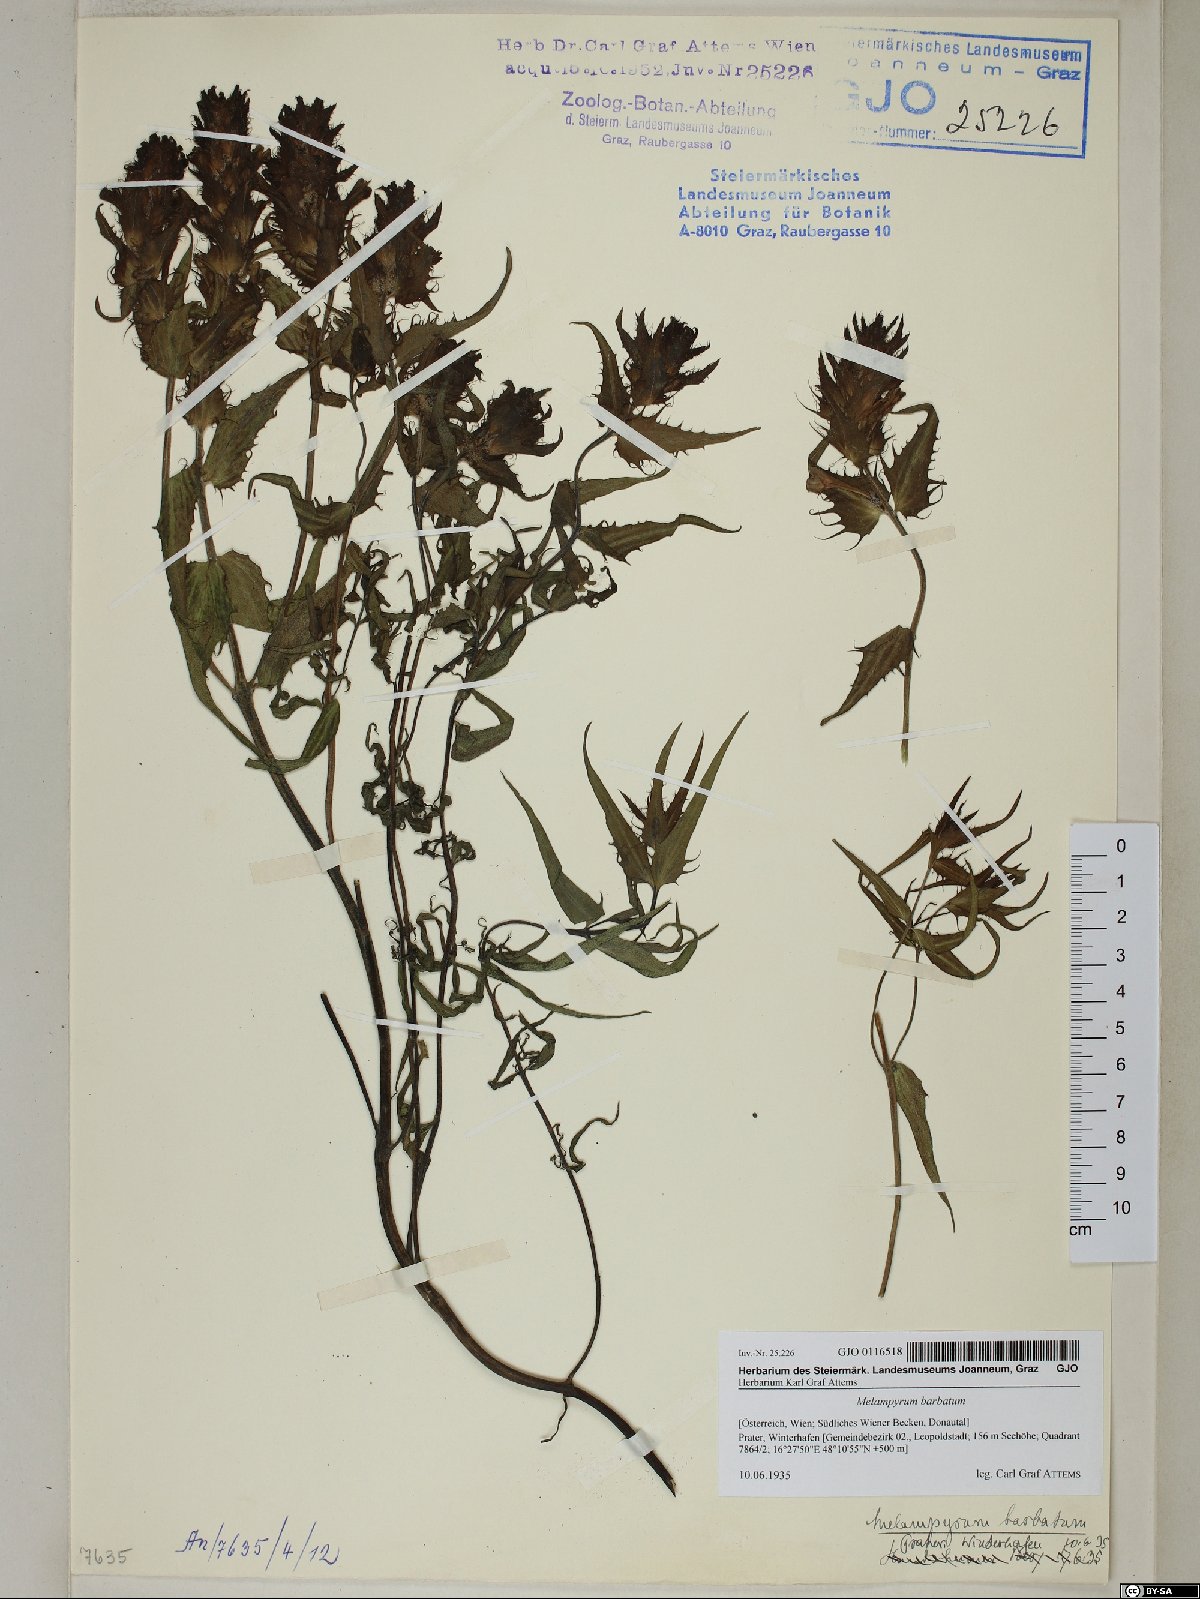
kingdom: Plantae
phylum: Tracheophyta
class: Magnoliopsida
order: Lamiales
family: Orobanchaceae
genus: Melampyrum
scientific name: Melampyrum barbatum
